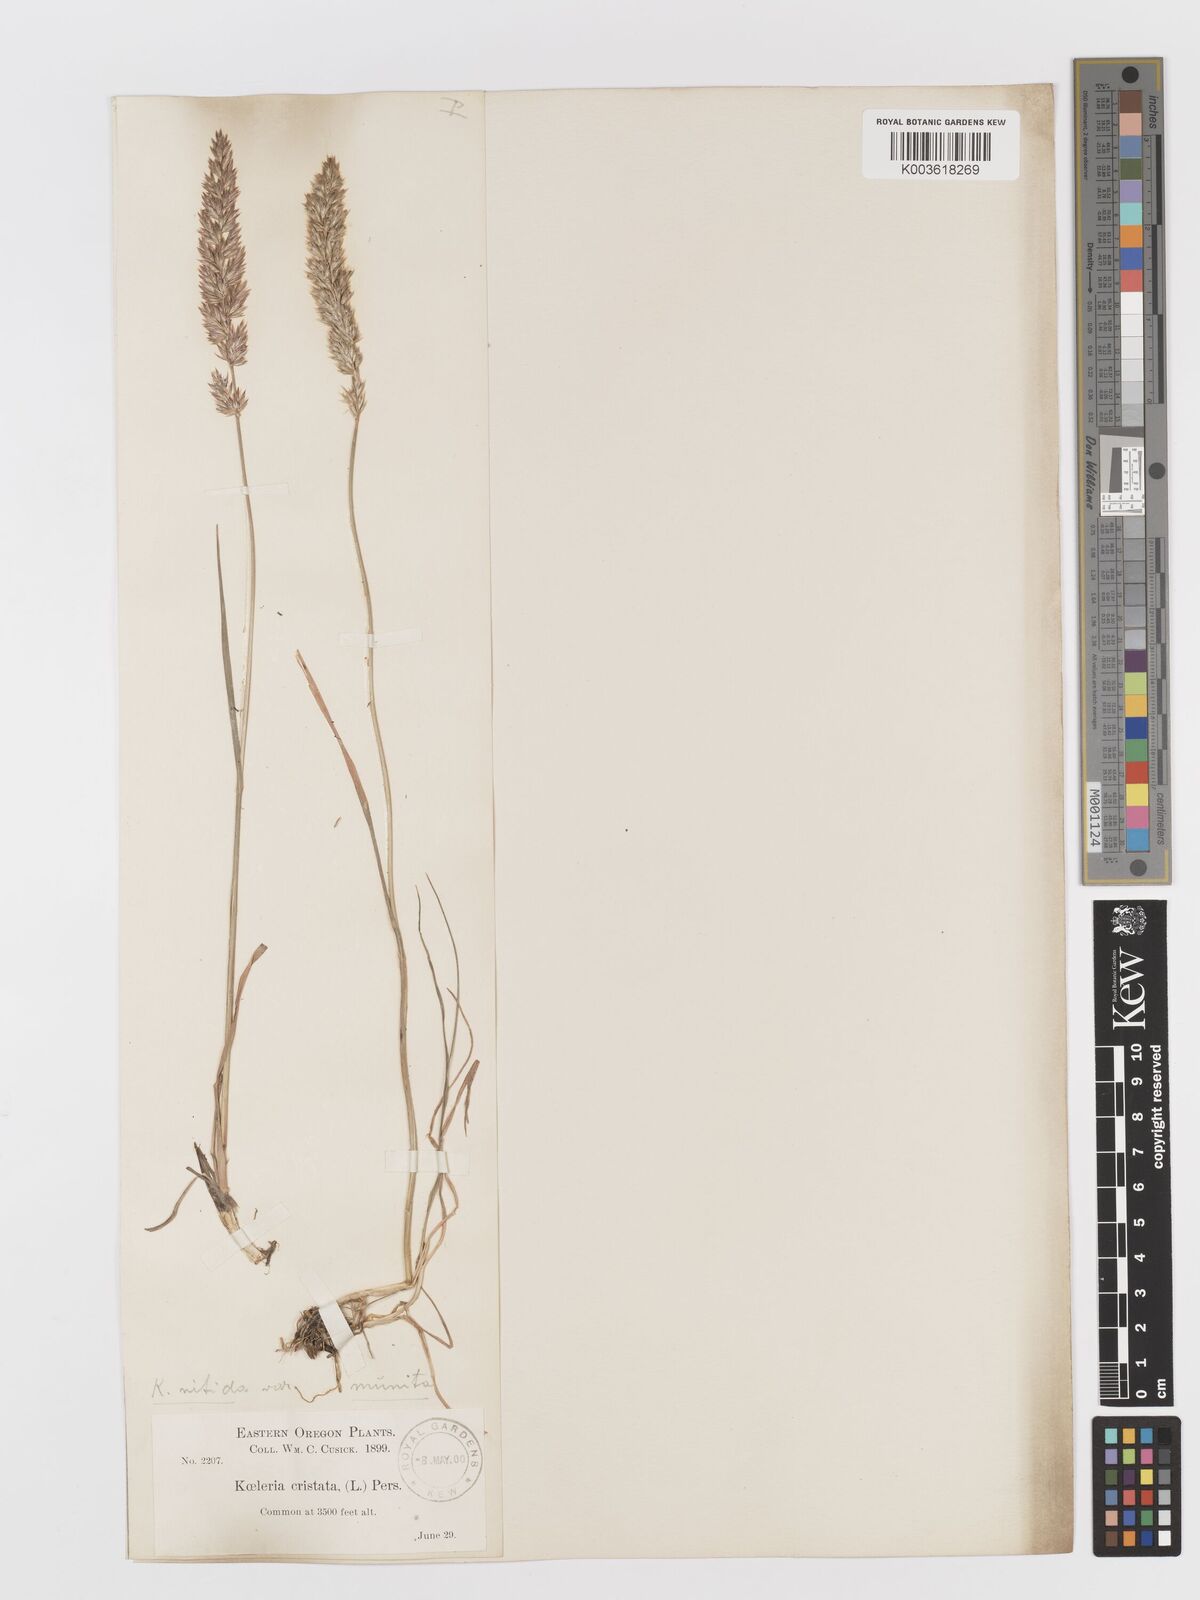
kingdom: Plantae
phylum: Tracheophyta
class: Liliopsida
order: Poales
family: Poaceae
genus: Koeleria
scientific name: Koeleria macrantha
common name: Crested hair-grass
